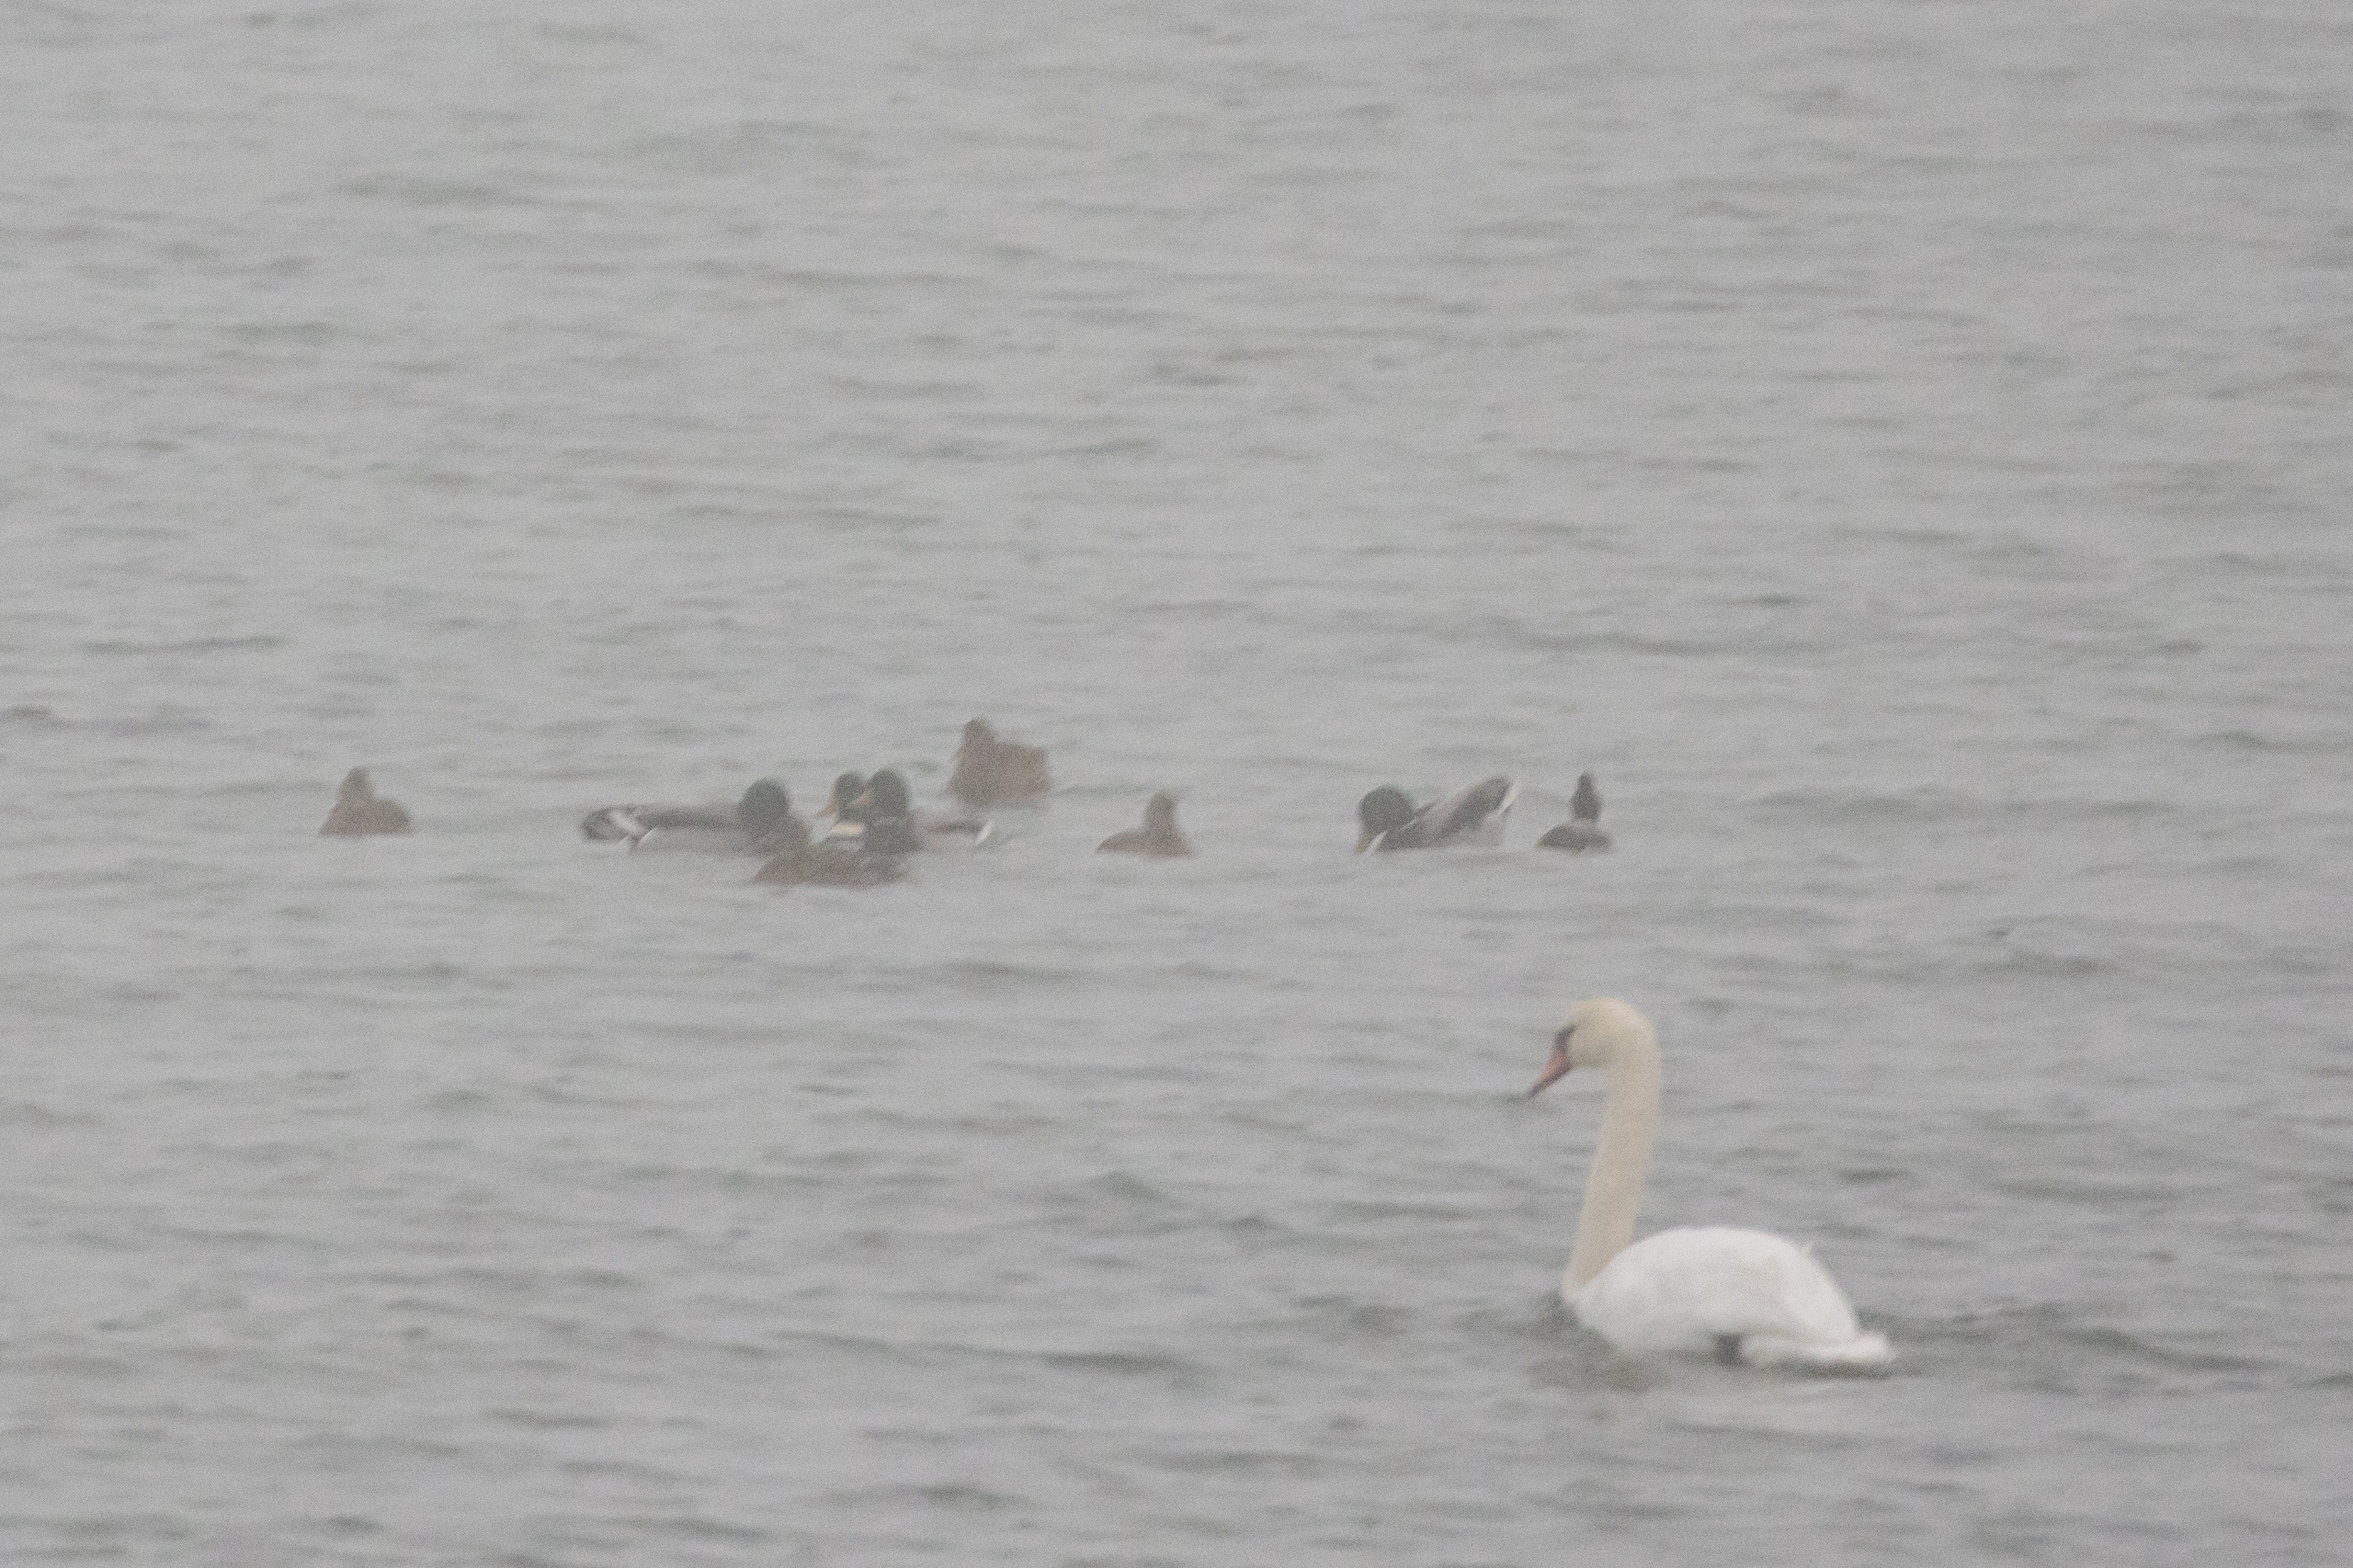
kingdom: Animalia
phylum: Chordata
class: Aves
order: Anseriformes
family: Anatidae
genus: Anas
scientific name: Anas platyrhynchos
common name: Gråand
